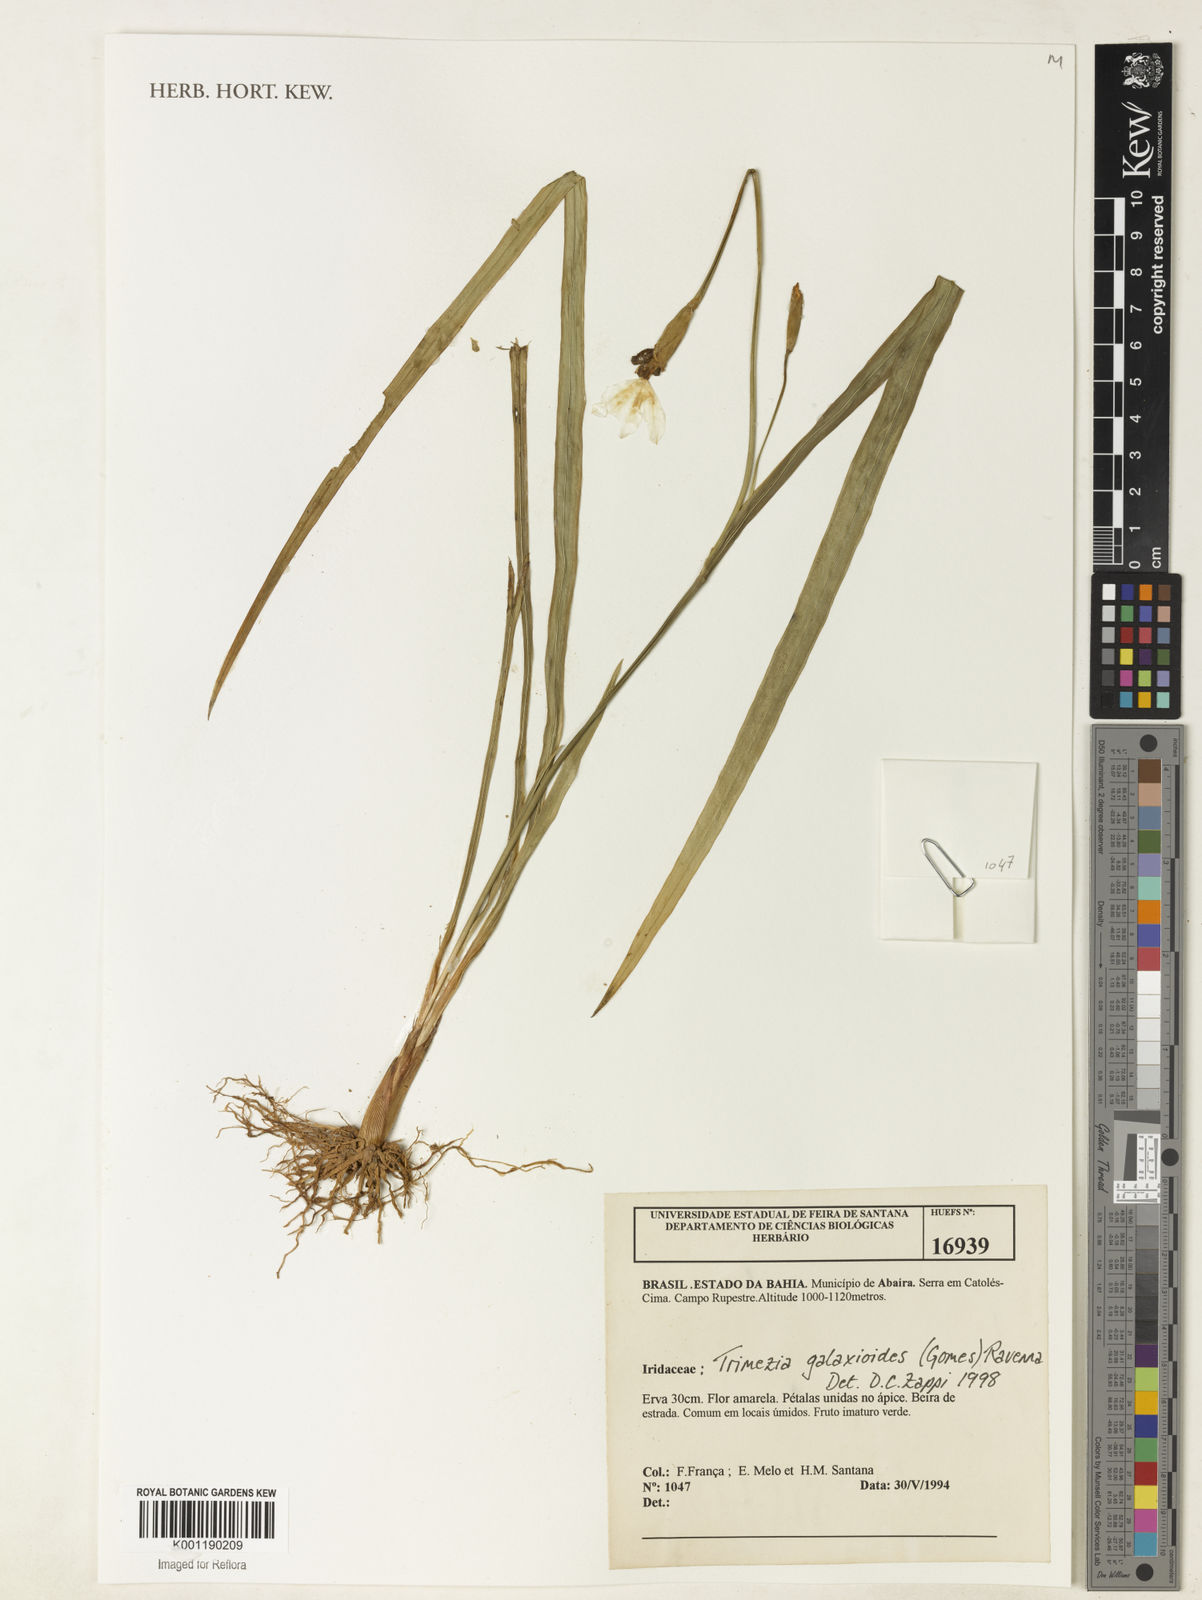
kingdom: Plantae
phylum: Tracheophyta
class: Liliopsida
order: Asparagales
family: Iridaceae
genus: Trimezia
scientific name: Trimezia martinicensis
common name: Martinique trimezia
